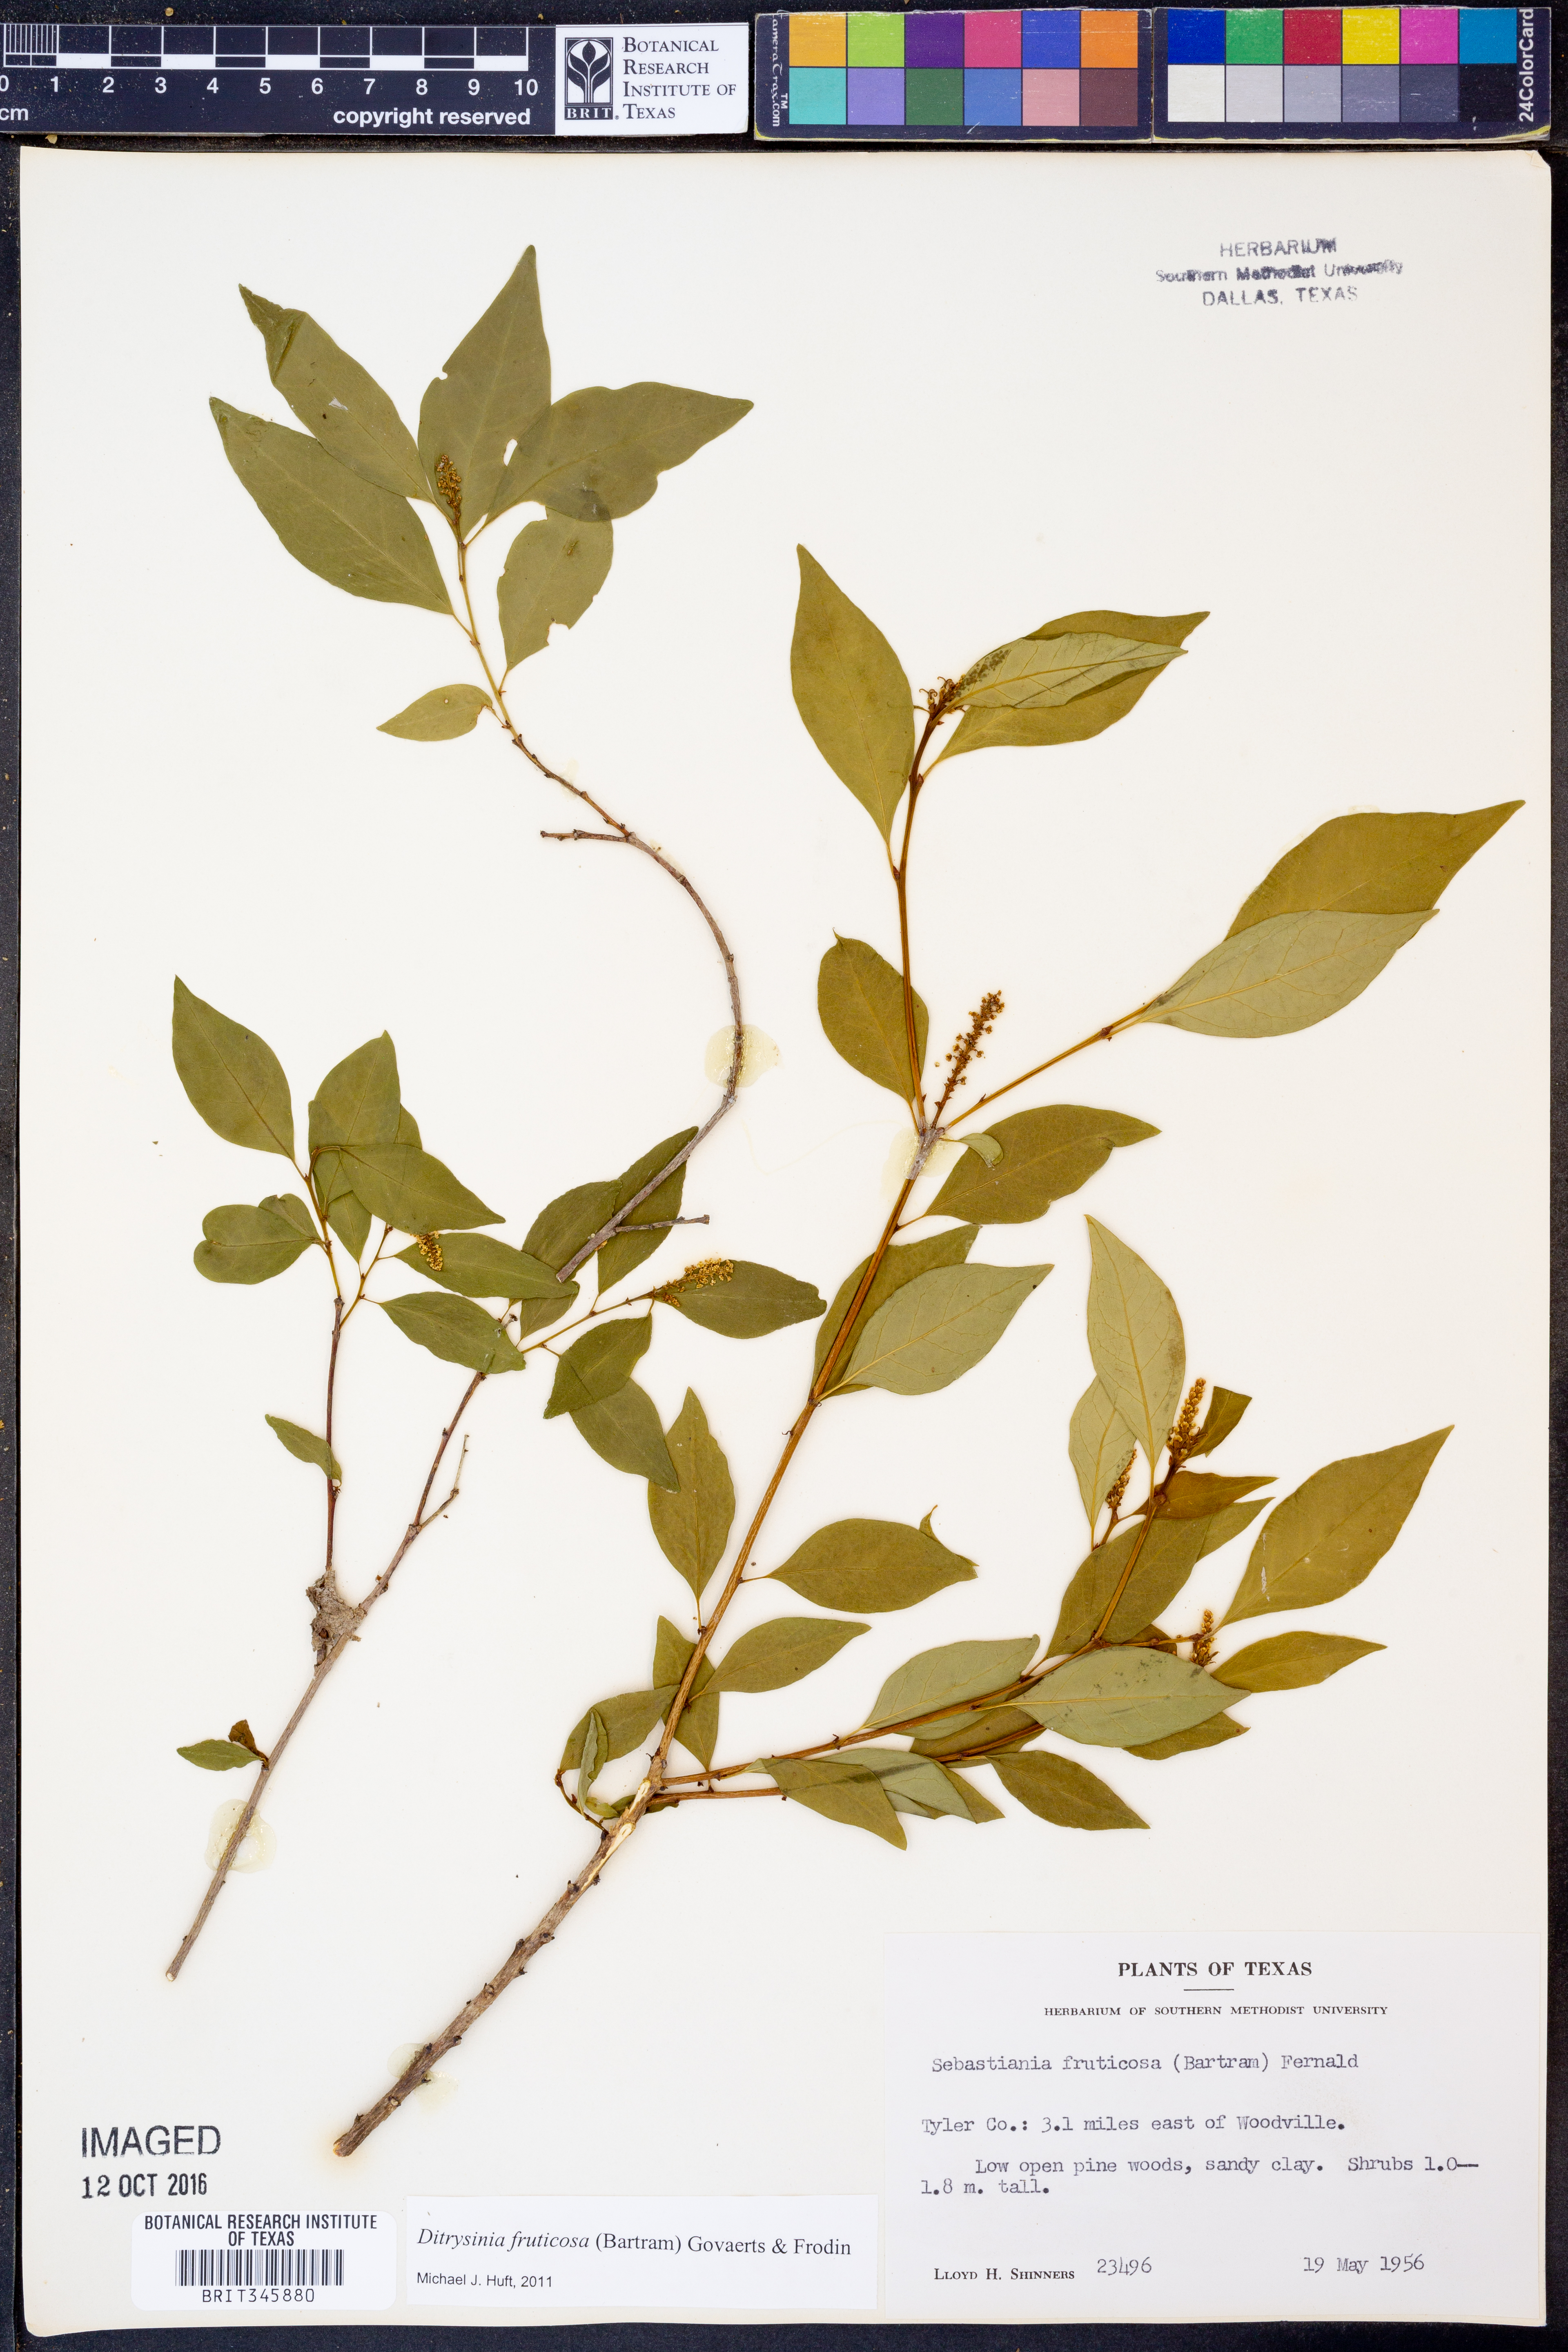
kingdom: Plantae
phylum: Tracheophyta
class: Magnoliopsida
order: Malpighiales
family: Euphorbiaceae
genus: Ditrysinia
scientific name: Ditrysinia fruticosa
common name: Gulf sebastian-bush
